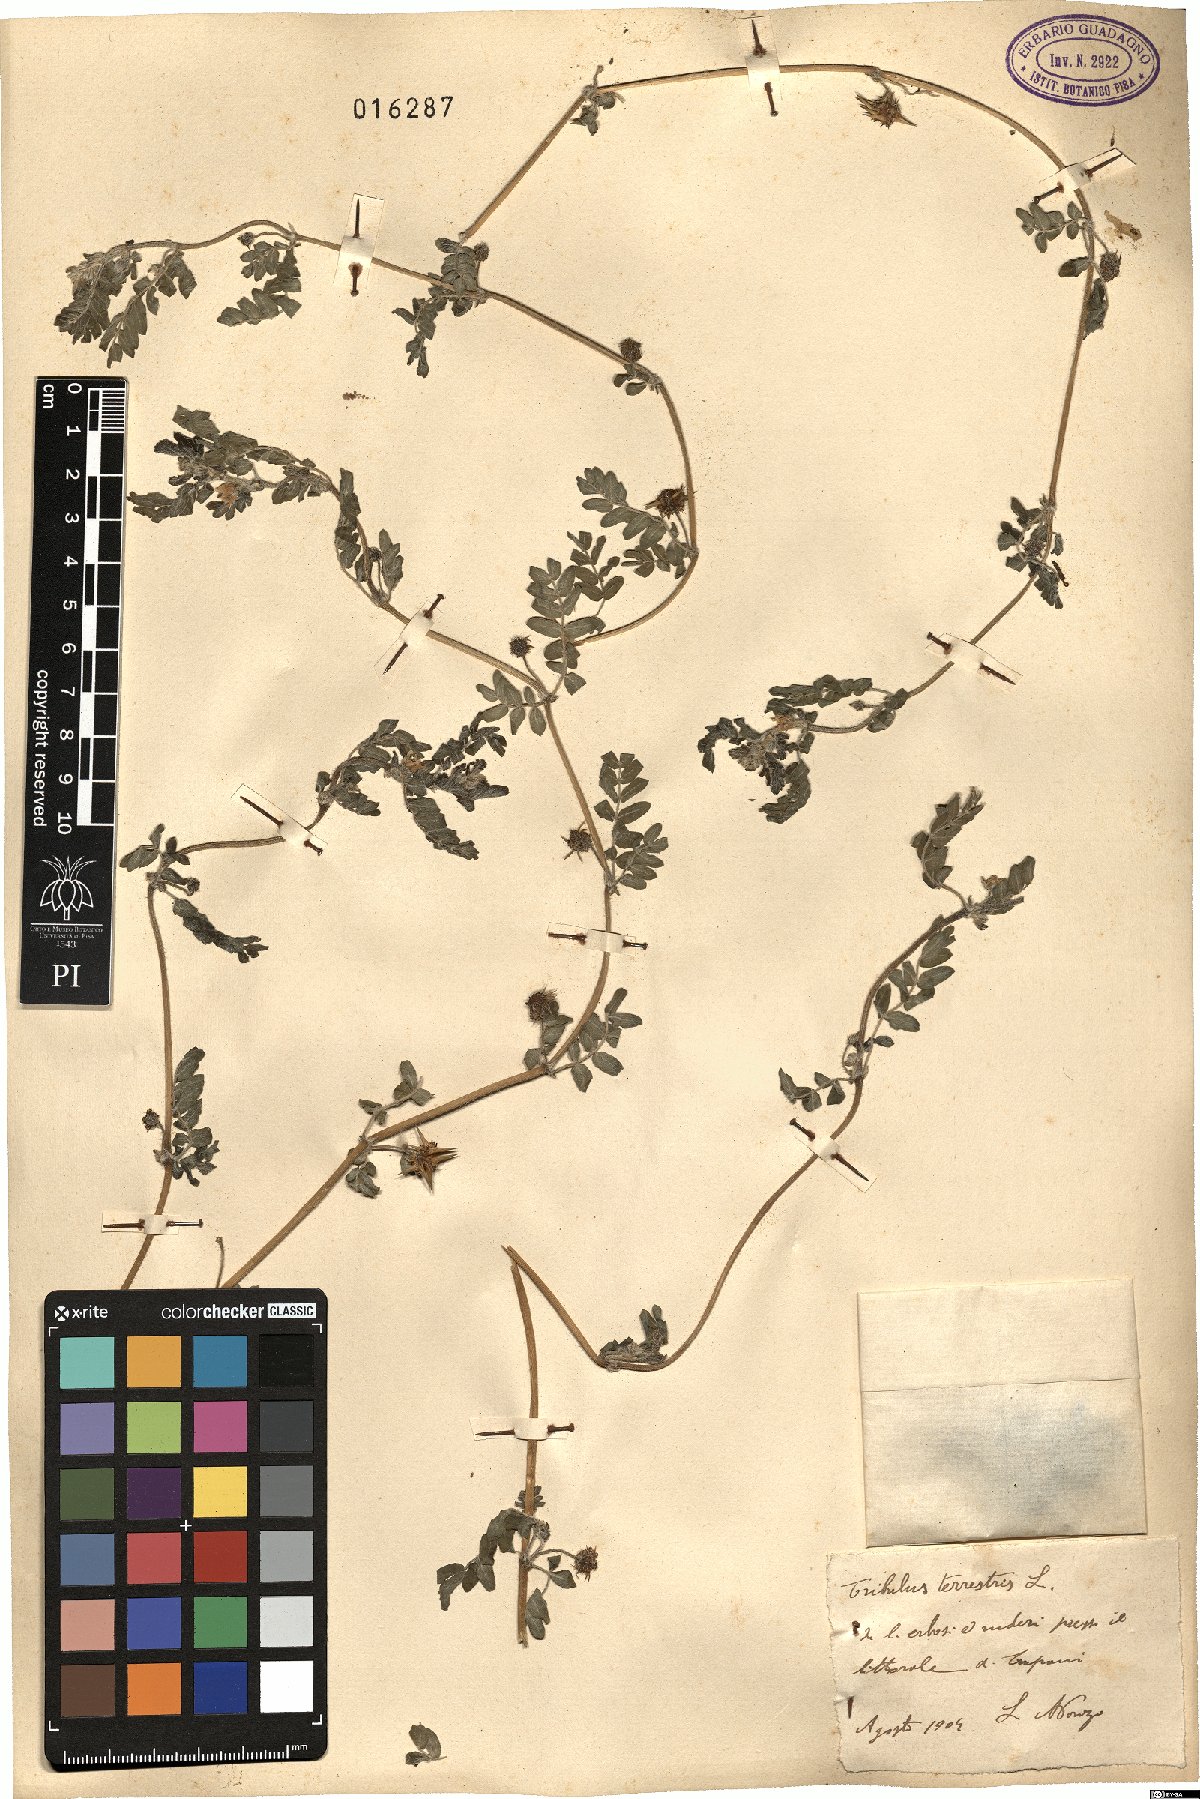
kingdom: Plantae
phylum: Tracheophyta
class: Magnoliopsida
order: Zygophyllales
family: Zygophyllaceae
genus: Tribulus
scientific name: Tribulus terrestris
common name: Puncturevine
